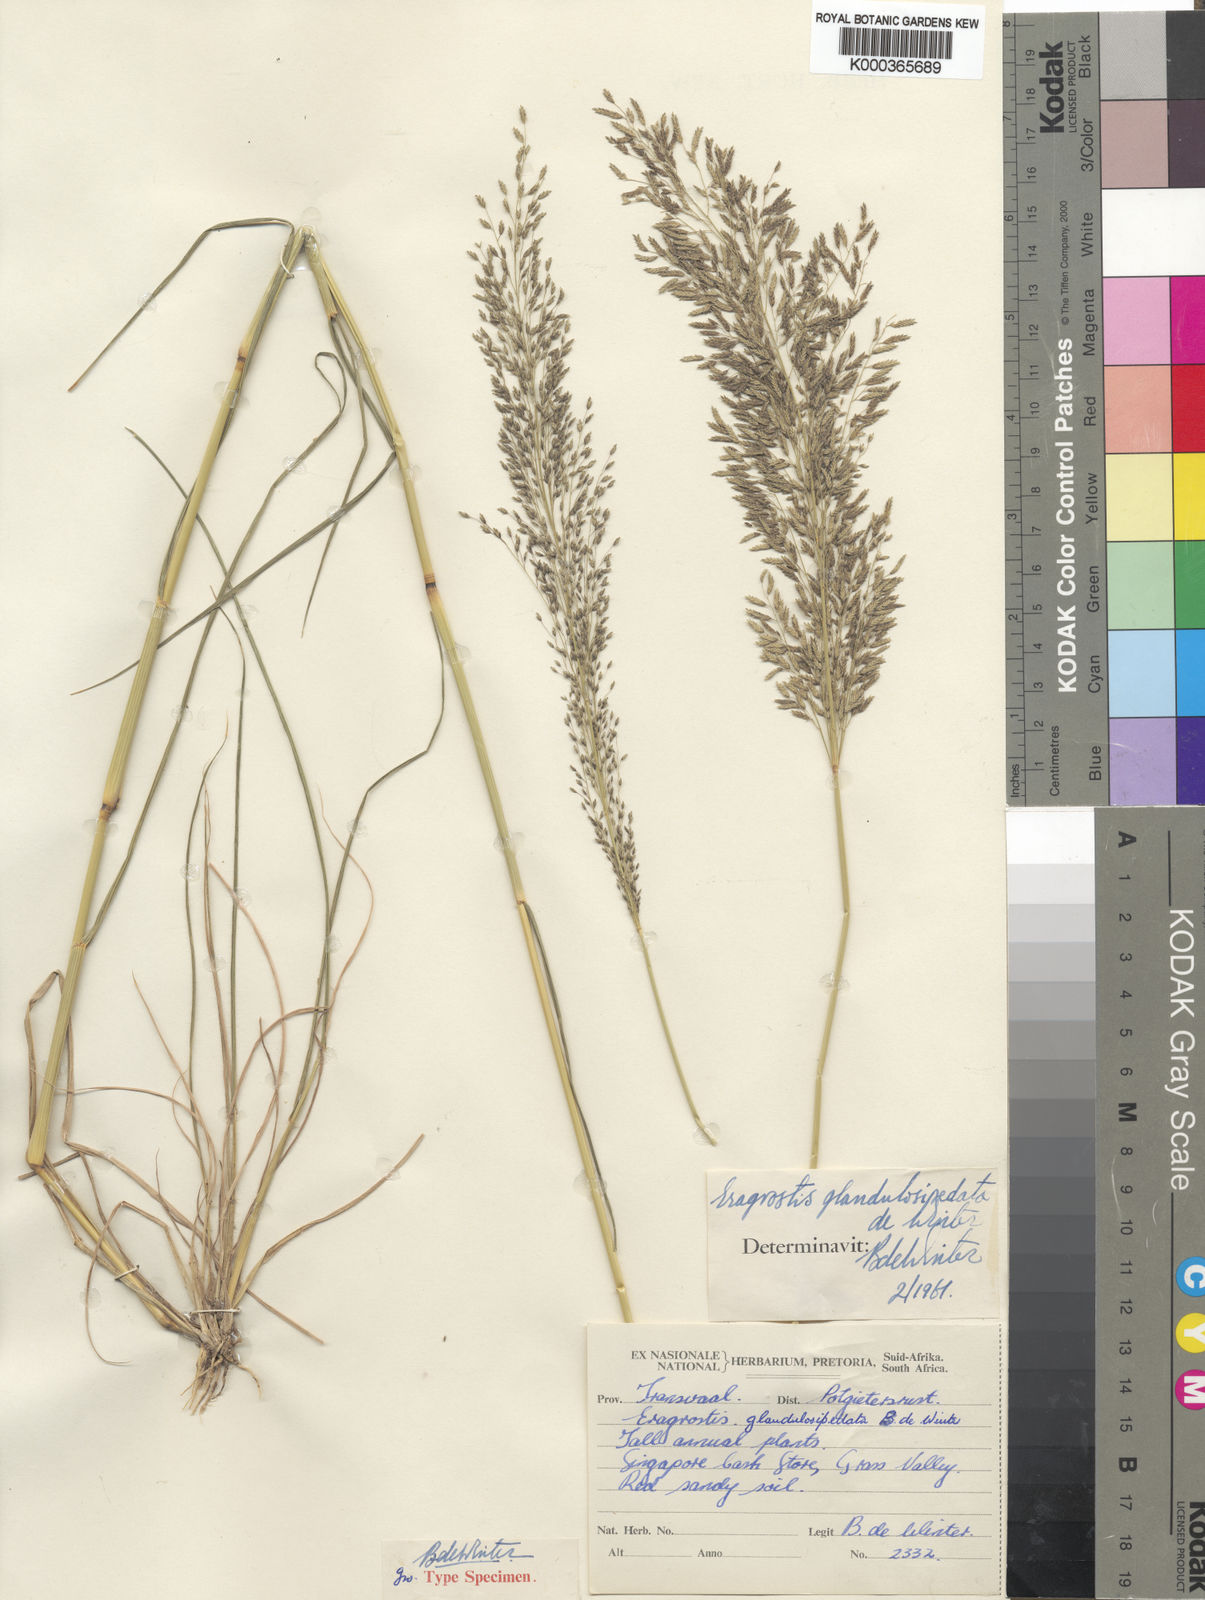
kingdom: Plantae
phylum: Tracheophyta
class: Liliopsida
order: Poales
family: Poaceae
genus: Eragrostis
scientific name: Eragrostis glandulosipedata
